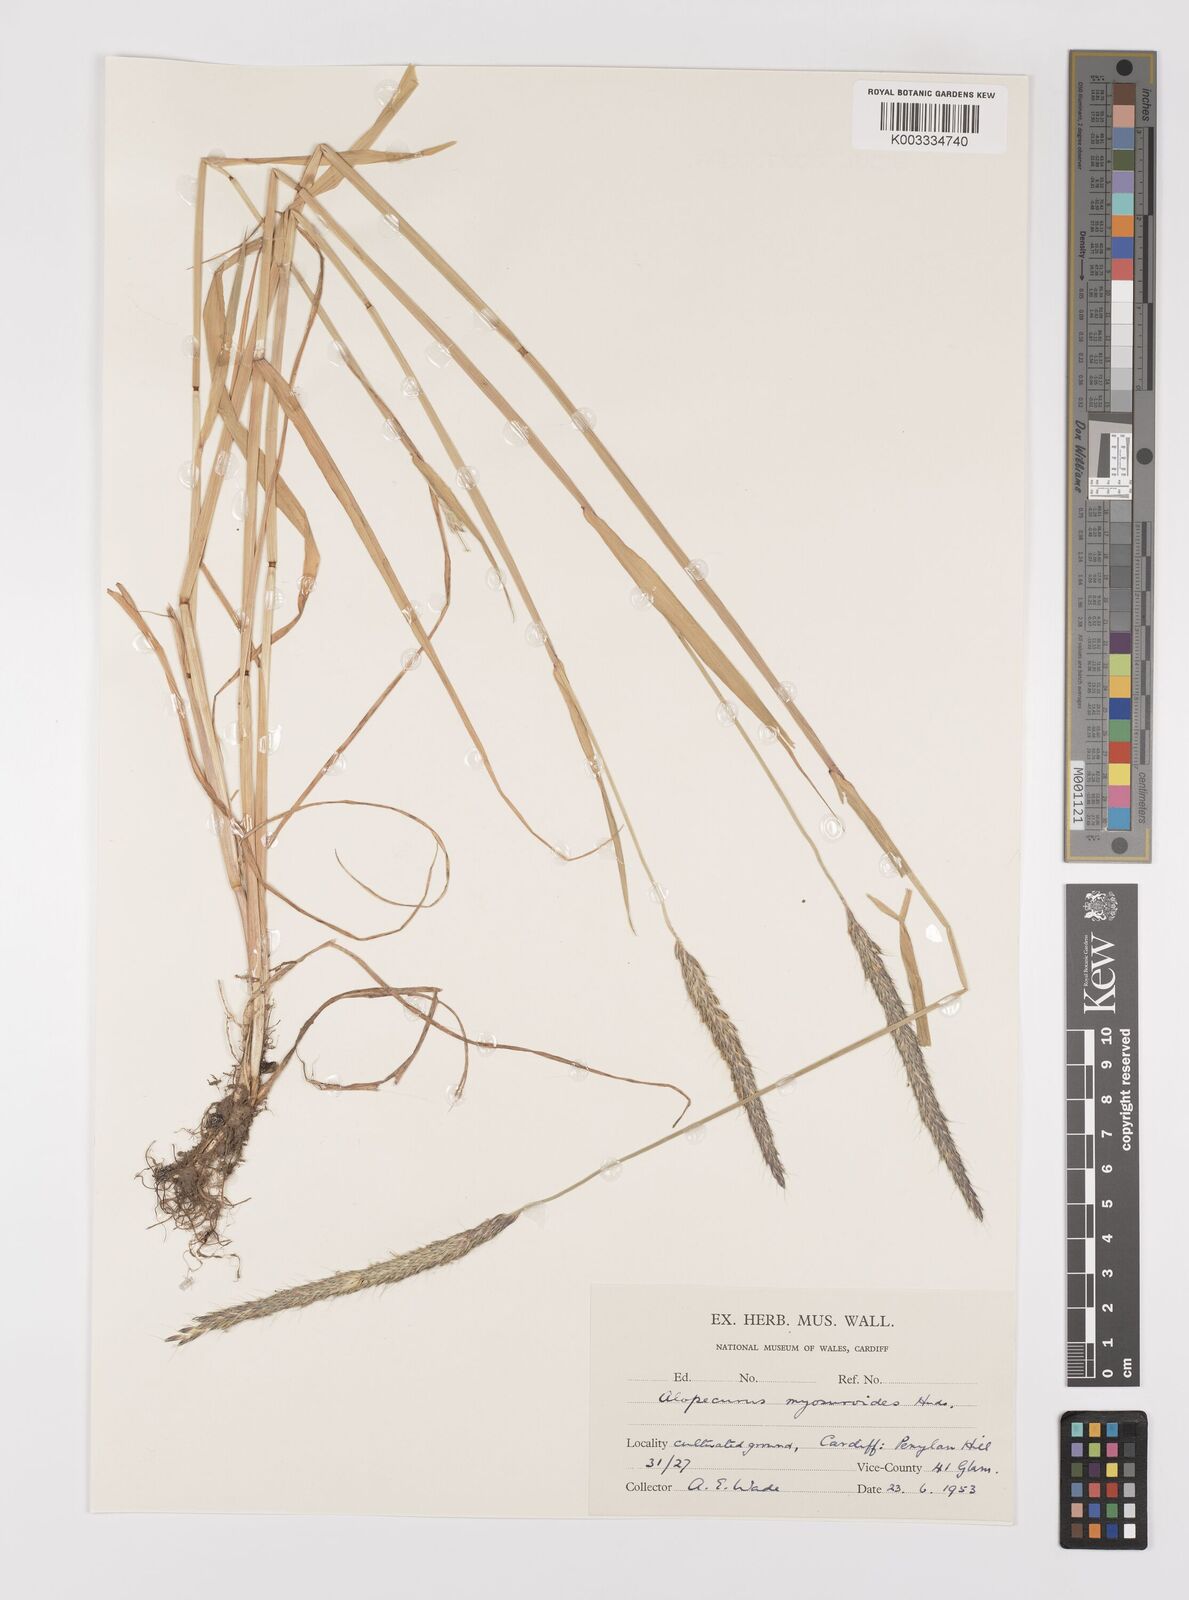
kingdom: Plantae
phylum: Tracheophyta
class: Liliopsida
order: Poales
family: Poaceae
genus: Alopecurus
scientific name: Alopecurus myosuroides
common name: Black-grass
